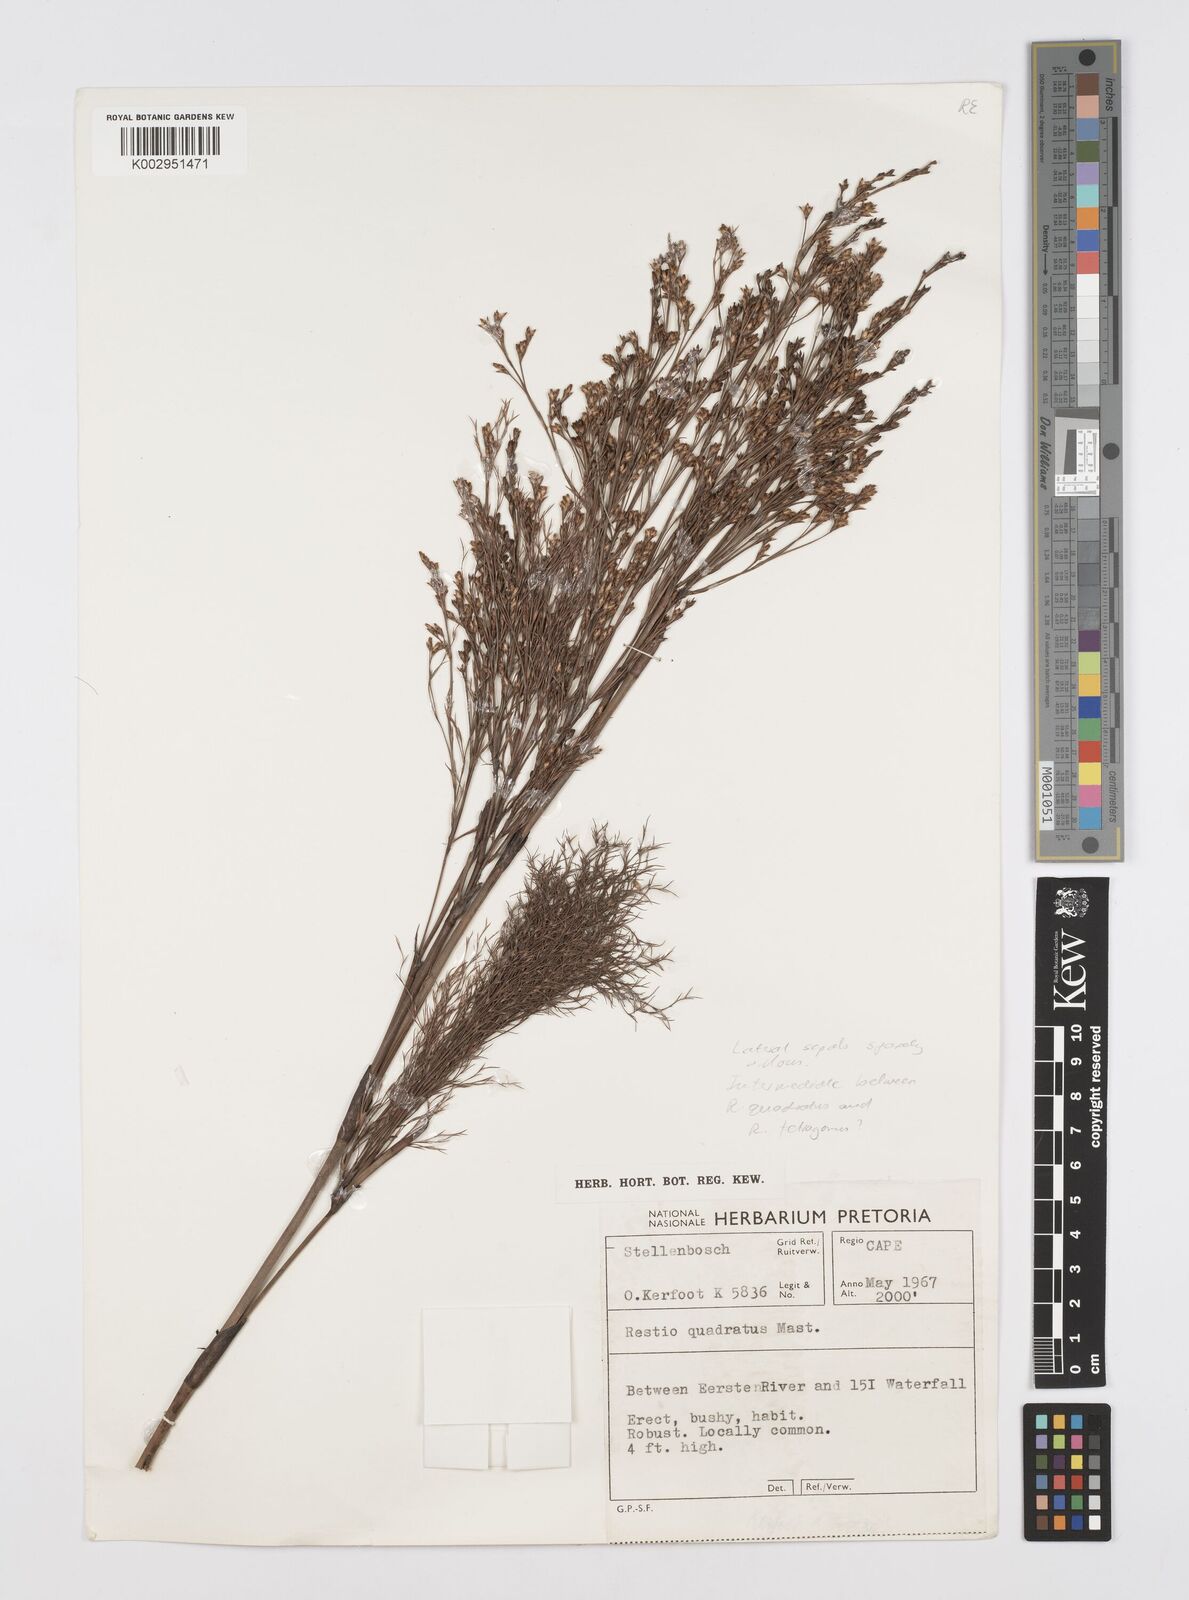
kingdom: Plantae
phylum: Tracheophyta
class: Liliopsida
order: Poales
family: Restionaceae
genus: Restio
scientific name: Restio quadratus
